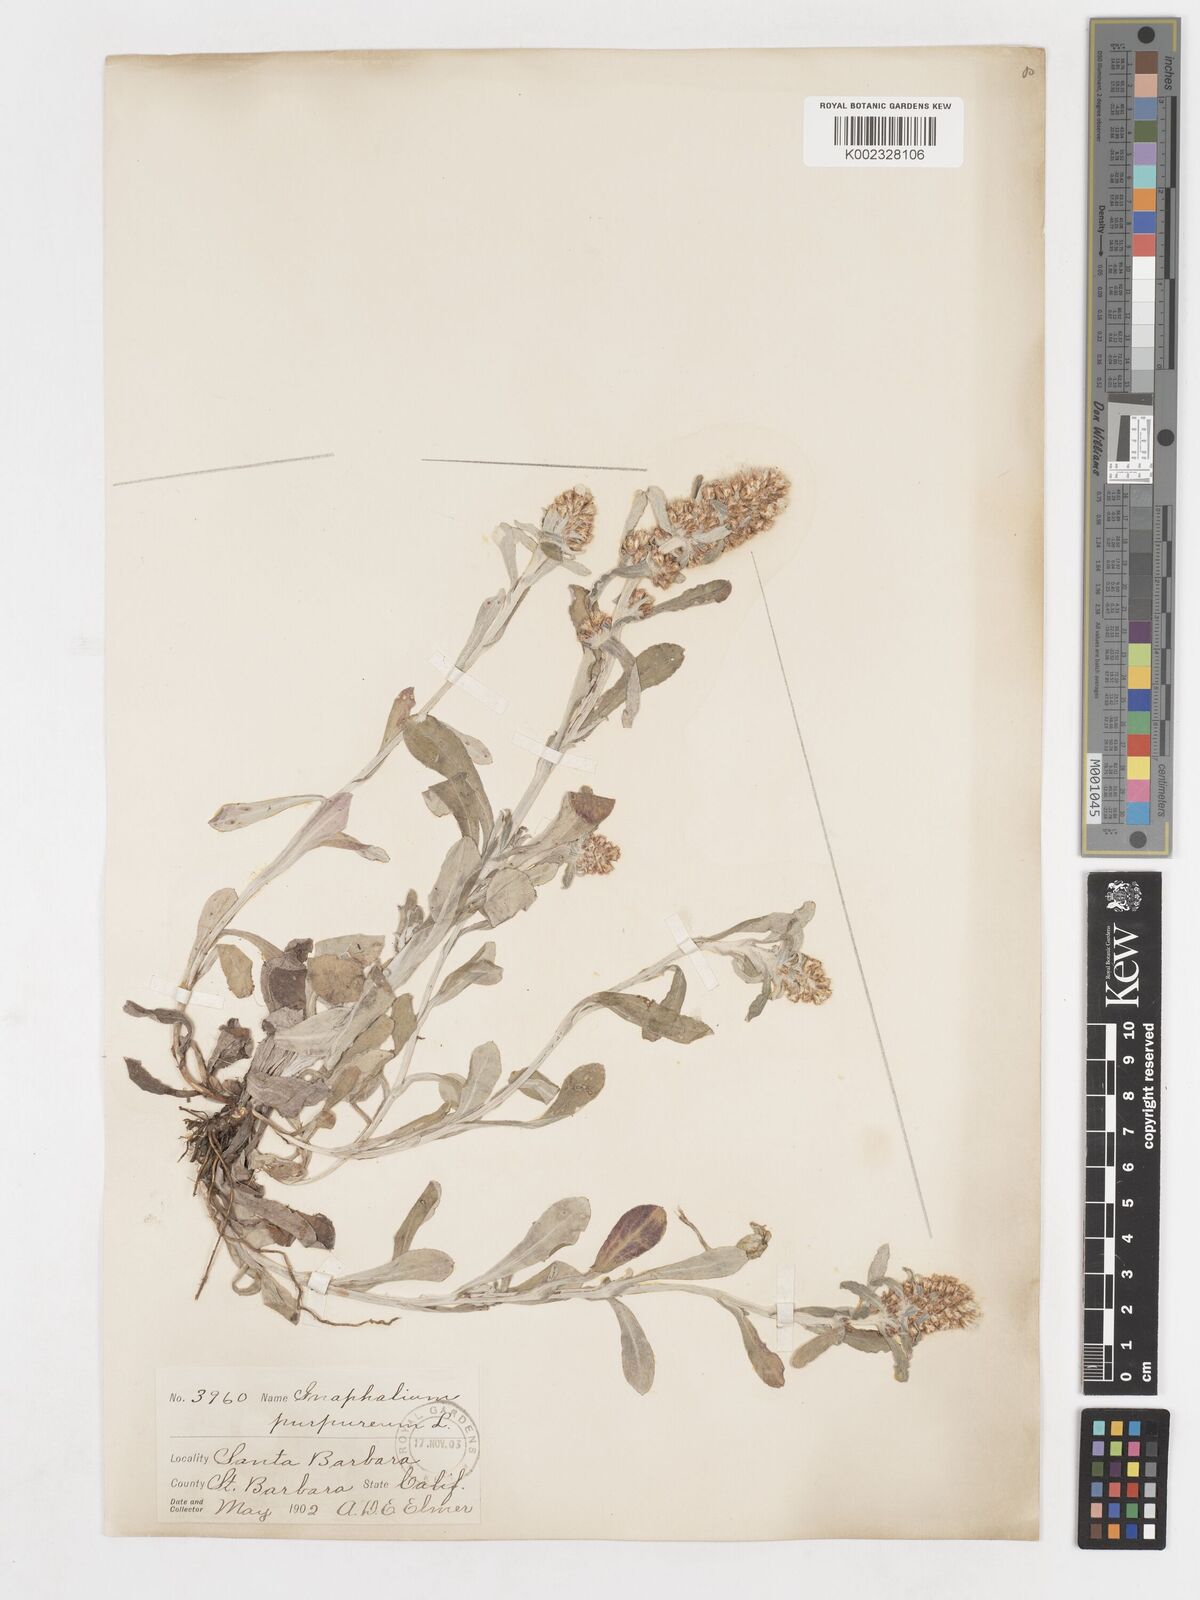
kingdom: Plantae
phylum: Tracheophyta
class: Magnoliopsida
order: Asterales
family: Asteraceae
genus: Gamochaeta
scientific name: Gamochaeta purpurea
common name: Purple cudweed
